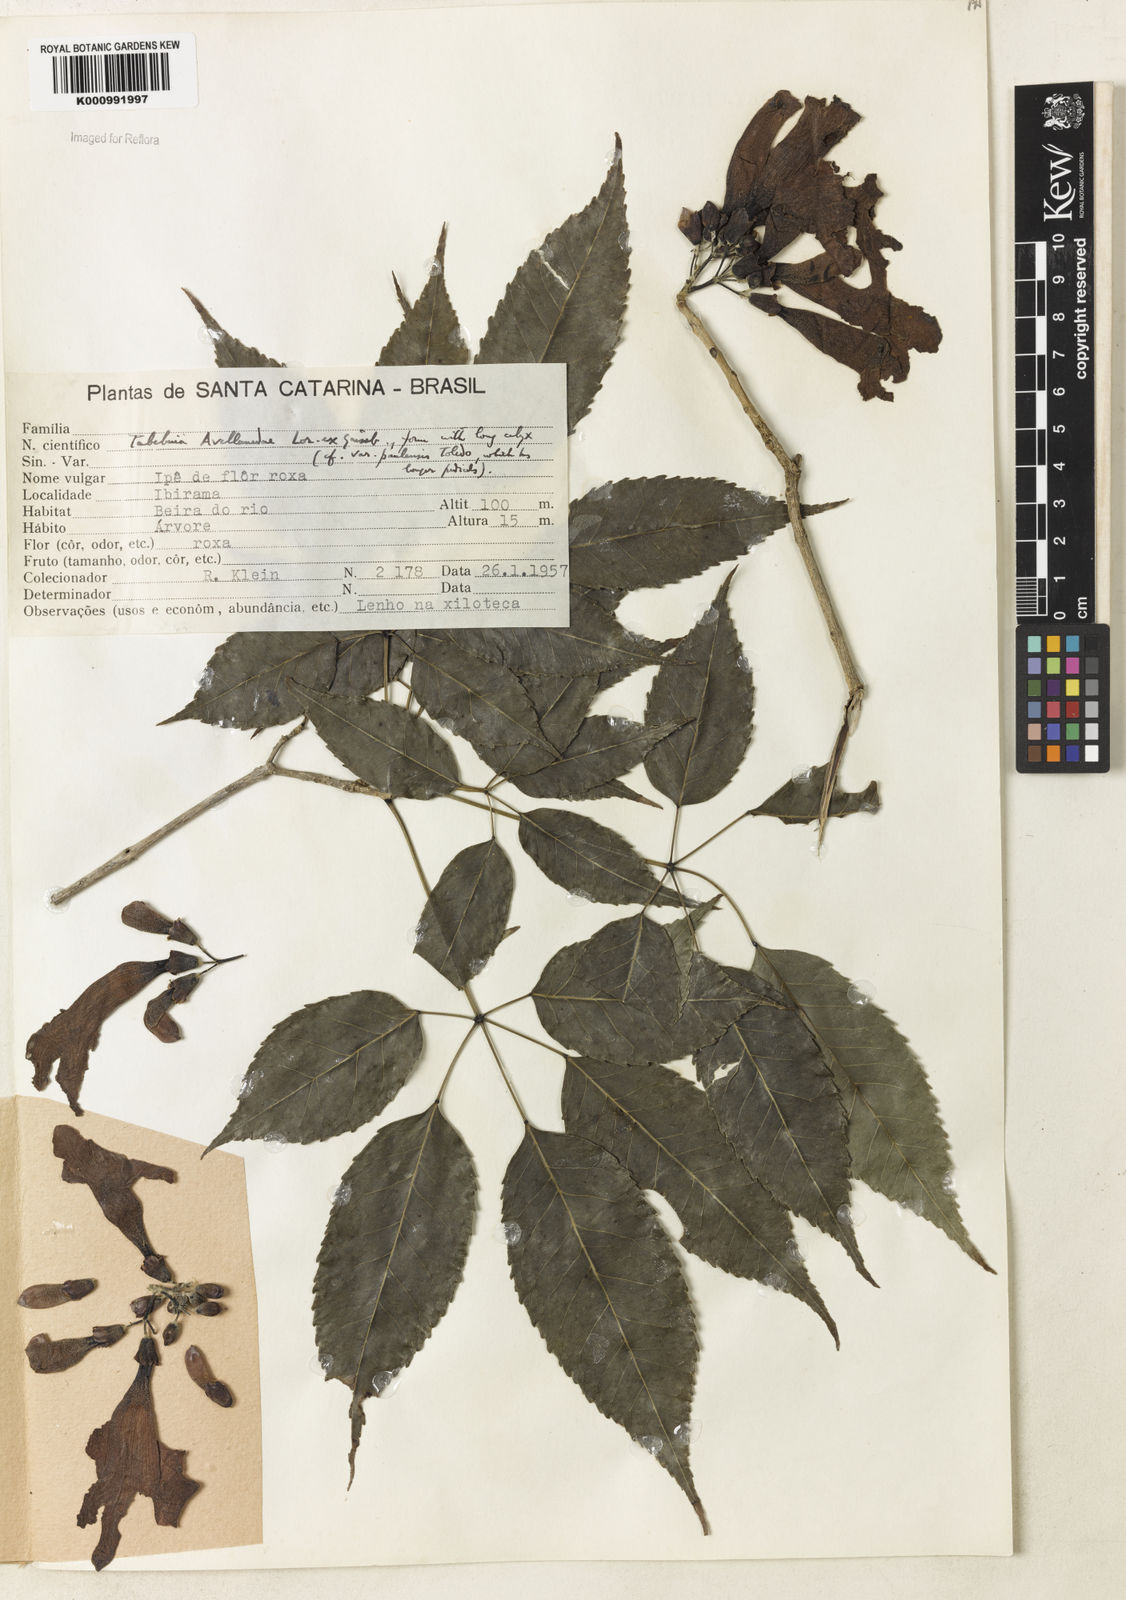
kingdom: Plantae
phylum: Tracheophyta
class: Magnoliopsida
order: Lamiales
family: Bignoniaceae
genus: Handroanthus
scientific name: Handroanthus heptaphyllus
